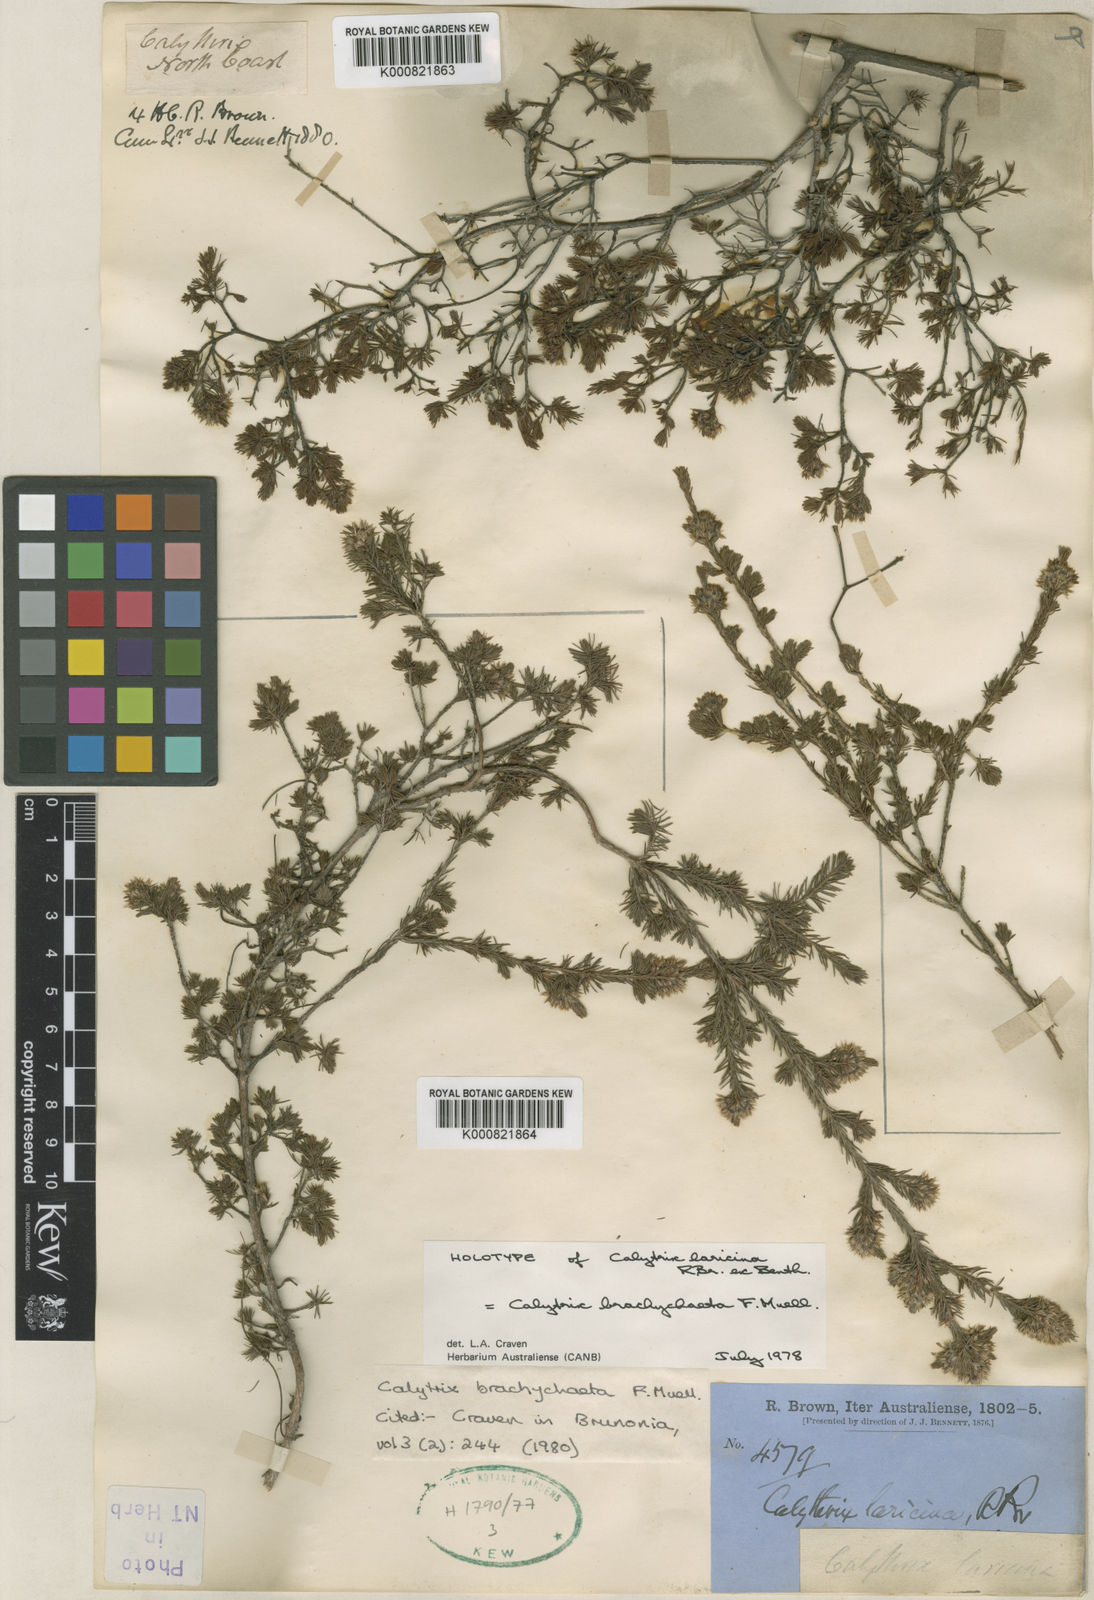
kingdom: Plantae
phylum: Tracheophyta
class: Magnoliopsida
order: Myrtales
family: Myrtaceae
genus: Calytrix
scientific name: Calytrix brownii
